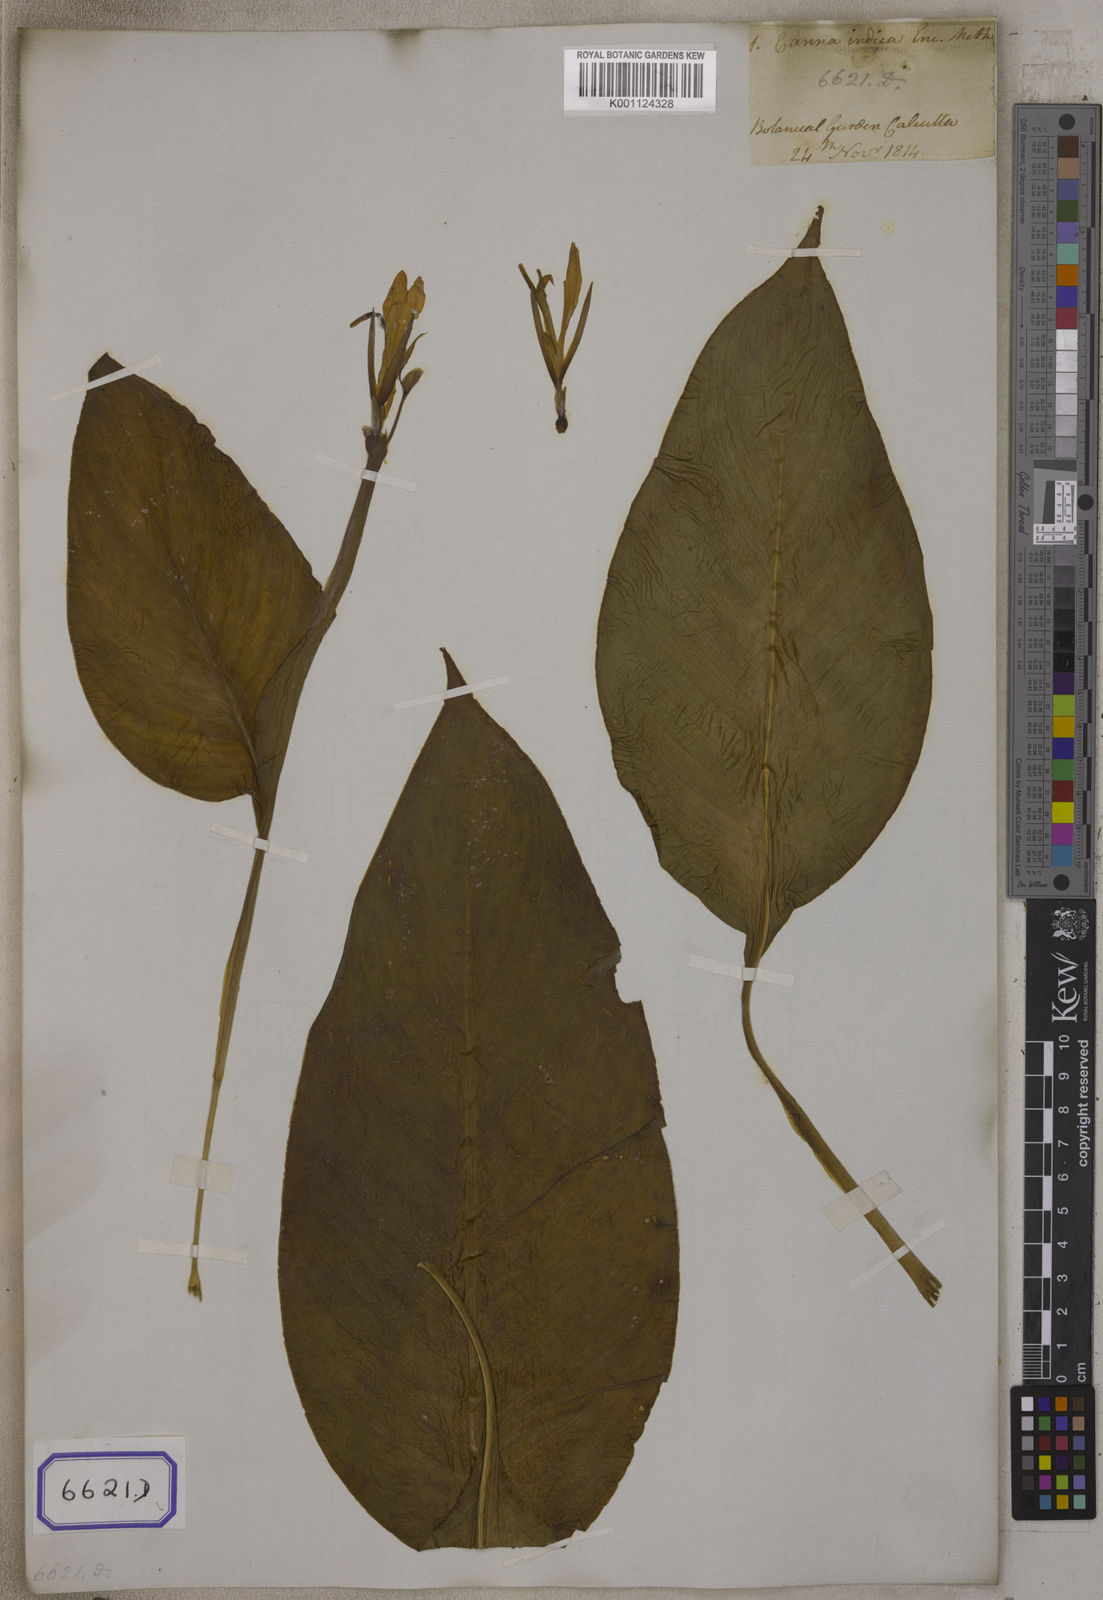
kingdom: Plantae
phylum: Tracheophyta
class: Liliopsida
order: Zingiberales
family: Cannaceae
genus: Canna
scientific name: Canna indica
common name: Indian shot
